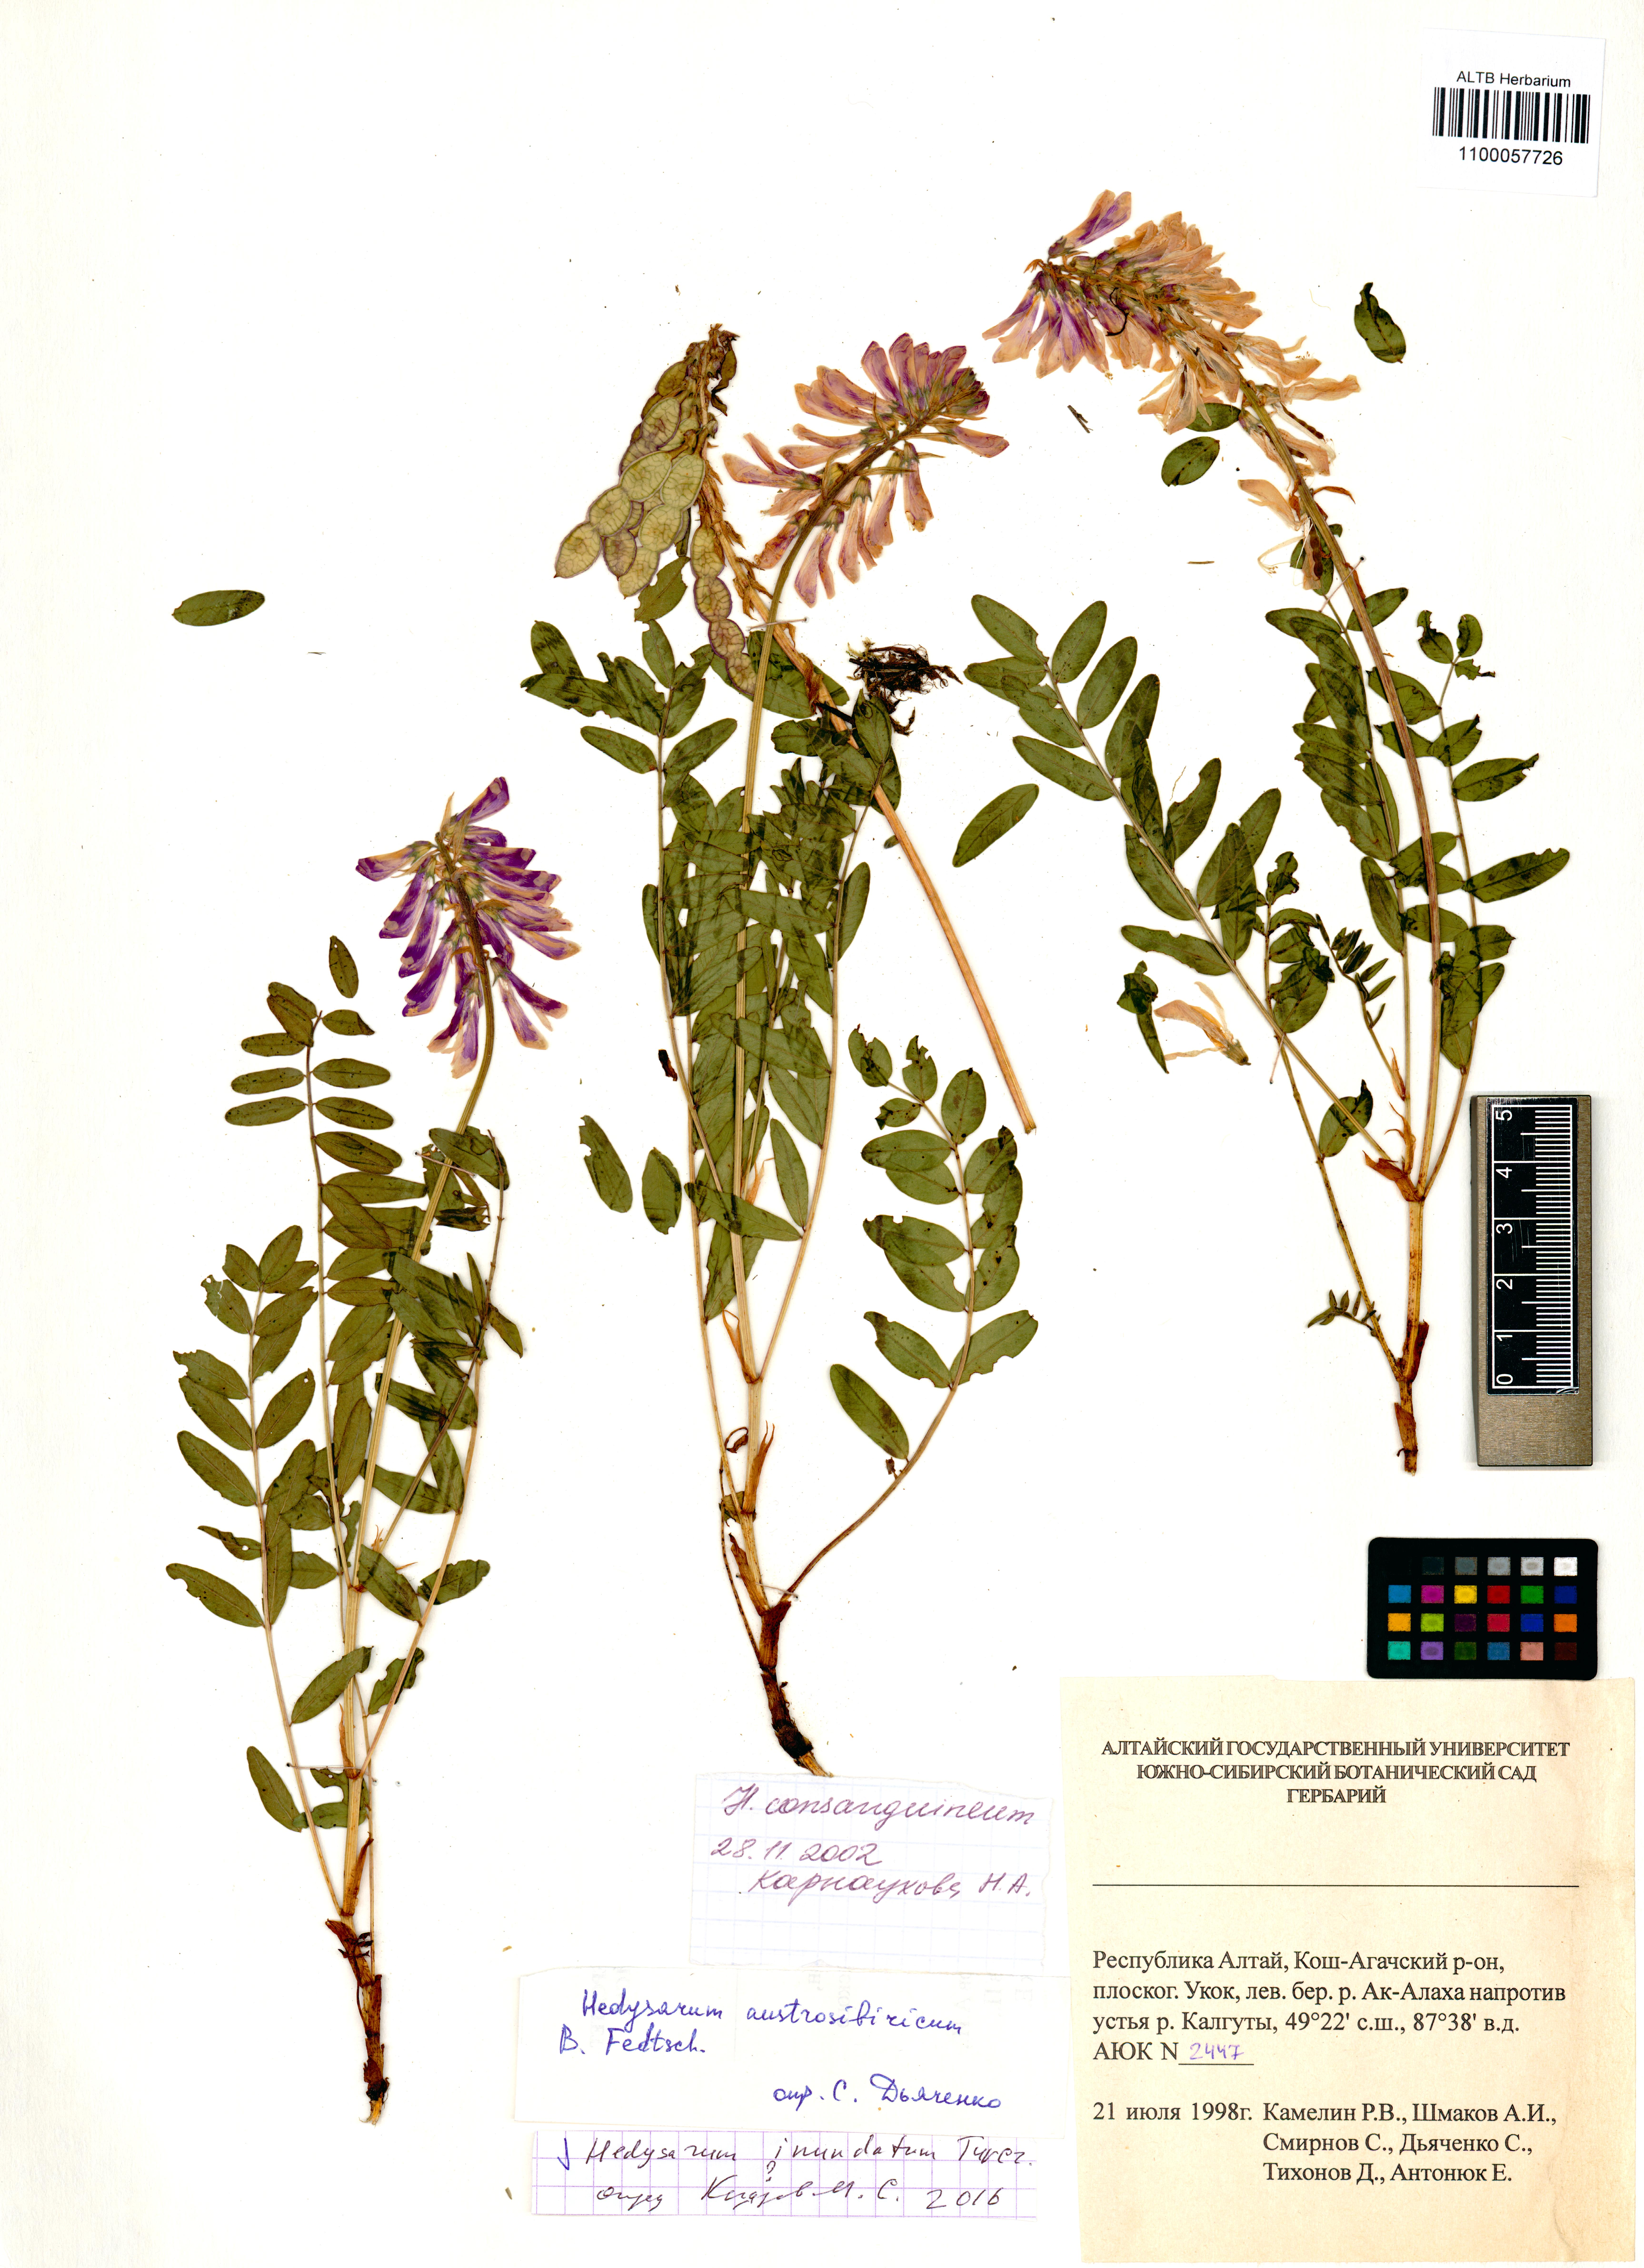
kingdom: Plantae
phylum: Tracheophyta
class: Magnoliopsida
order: Fabales
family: Fabaceae
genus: Hedysarum
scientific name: Hedysarum inundatum
